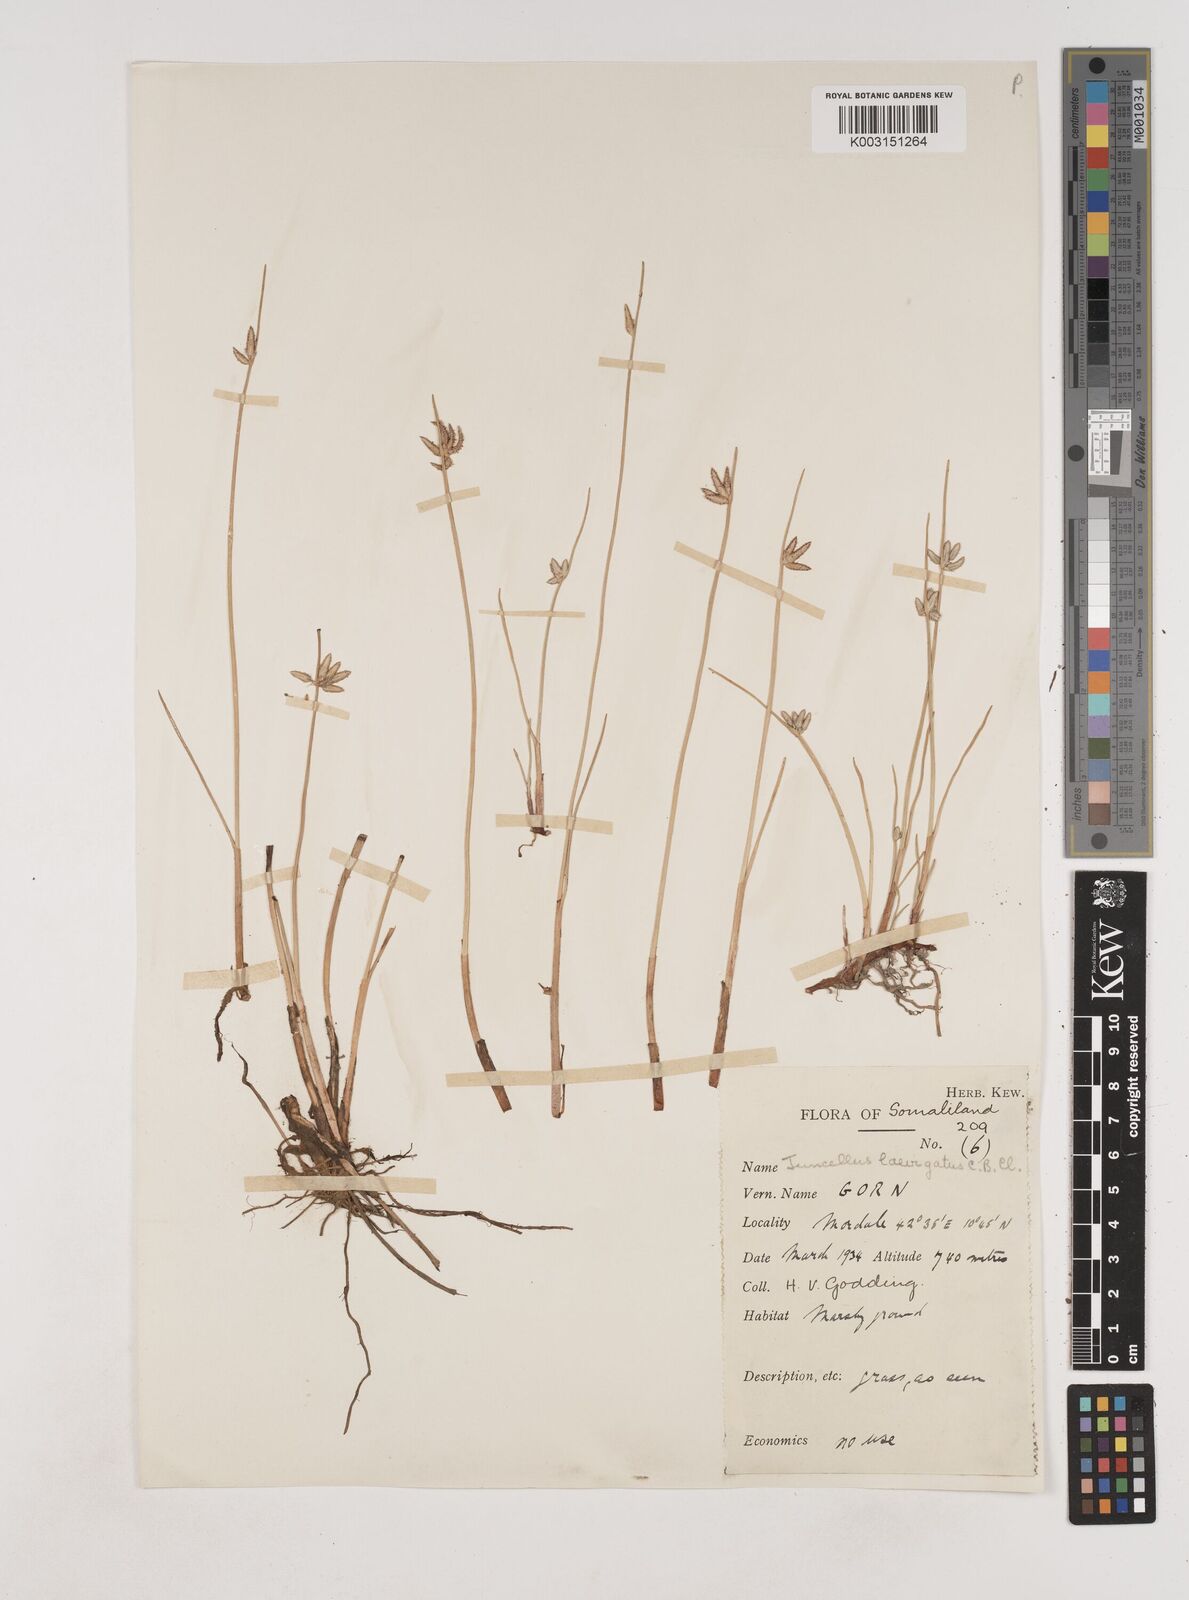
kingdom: Plantae
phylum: Tracheophyta
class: Liliopsida
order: Poales
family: Cyperaceae
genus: Cyperus
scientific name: Cyperus laevigatus
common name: Smooth flat sedge
